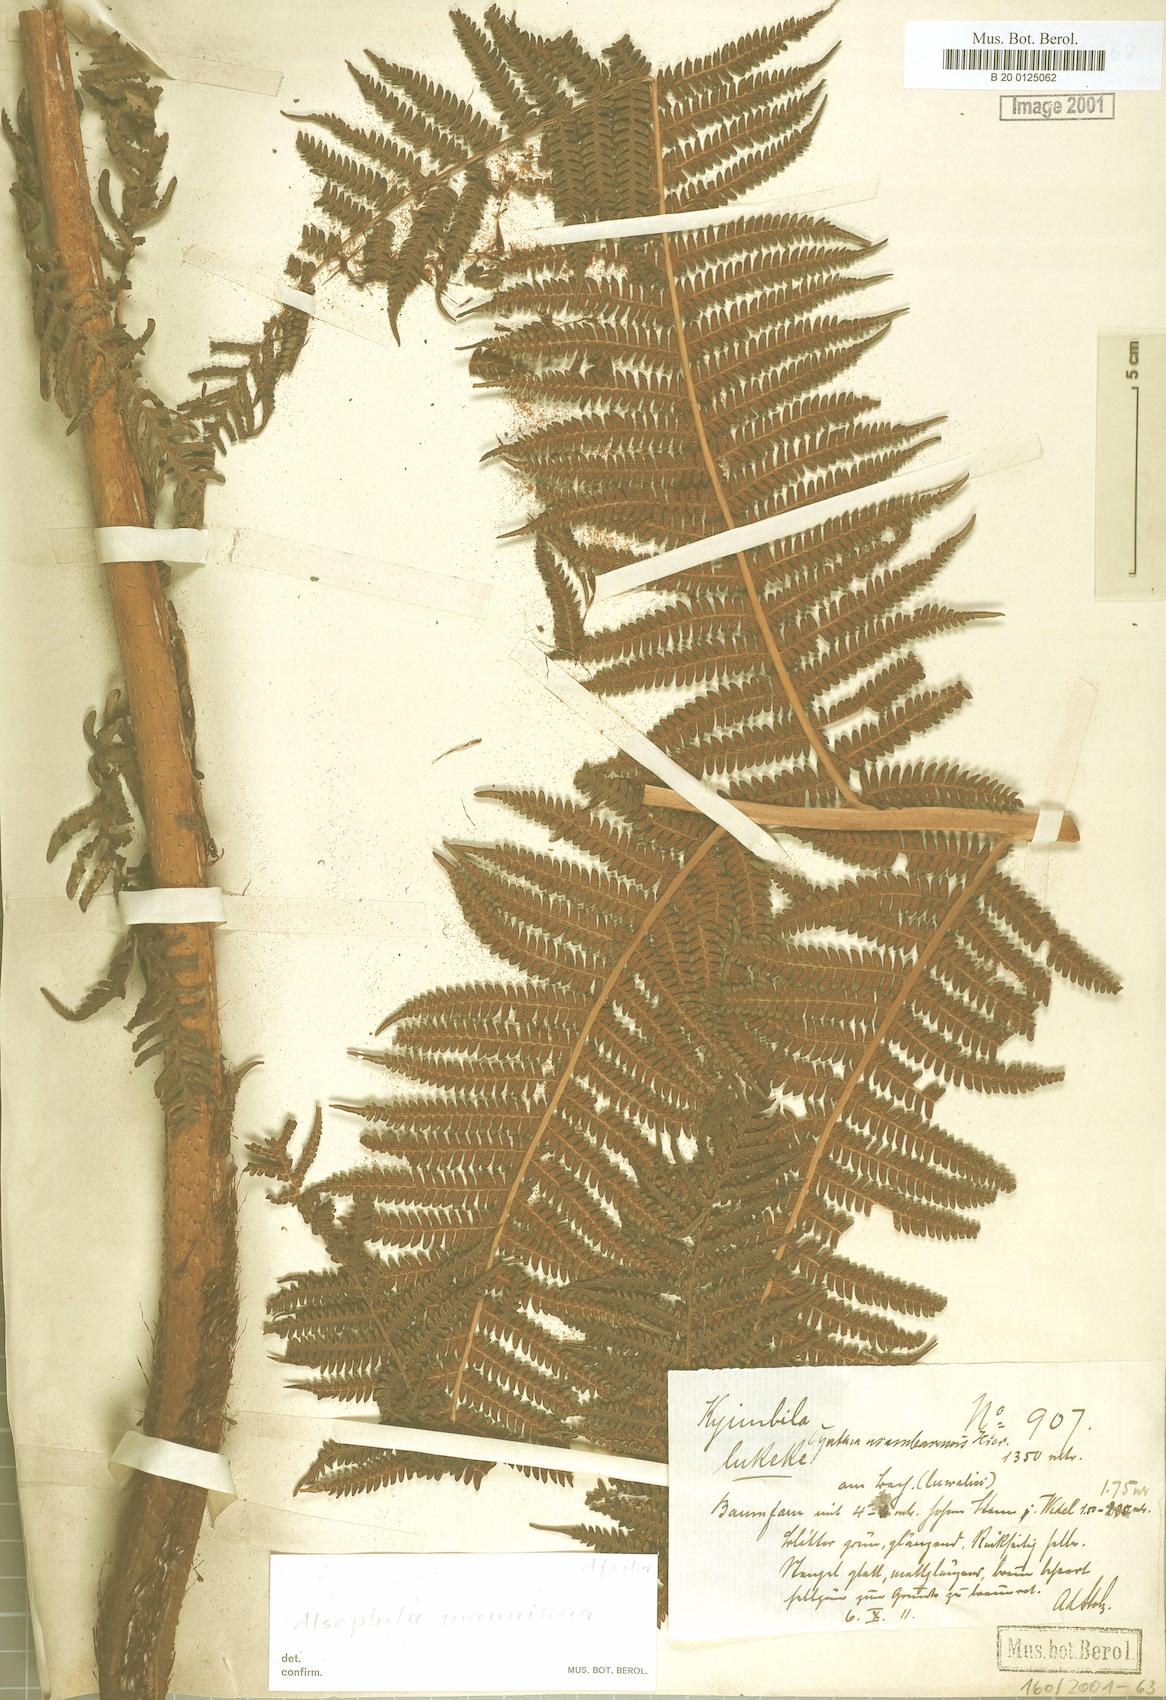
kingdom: Plantae
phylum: Tracheophyta
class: Polypodiopsida
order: Cyatheales
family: Cyatheaceae
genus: Alsophila
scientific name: Alsophila manniana
